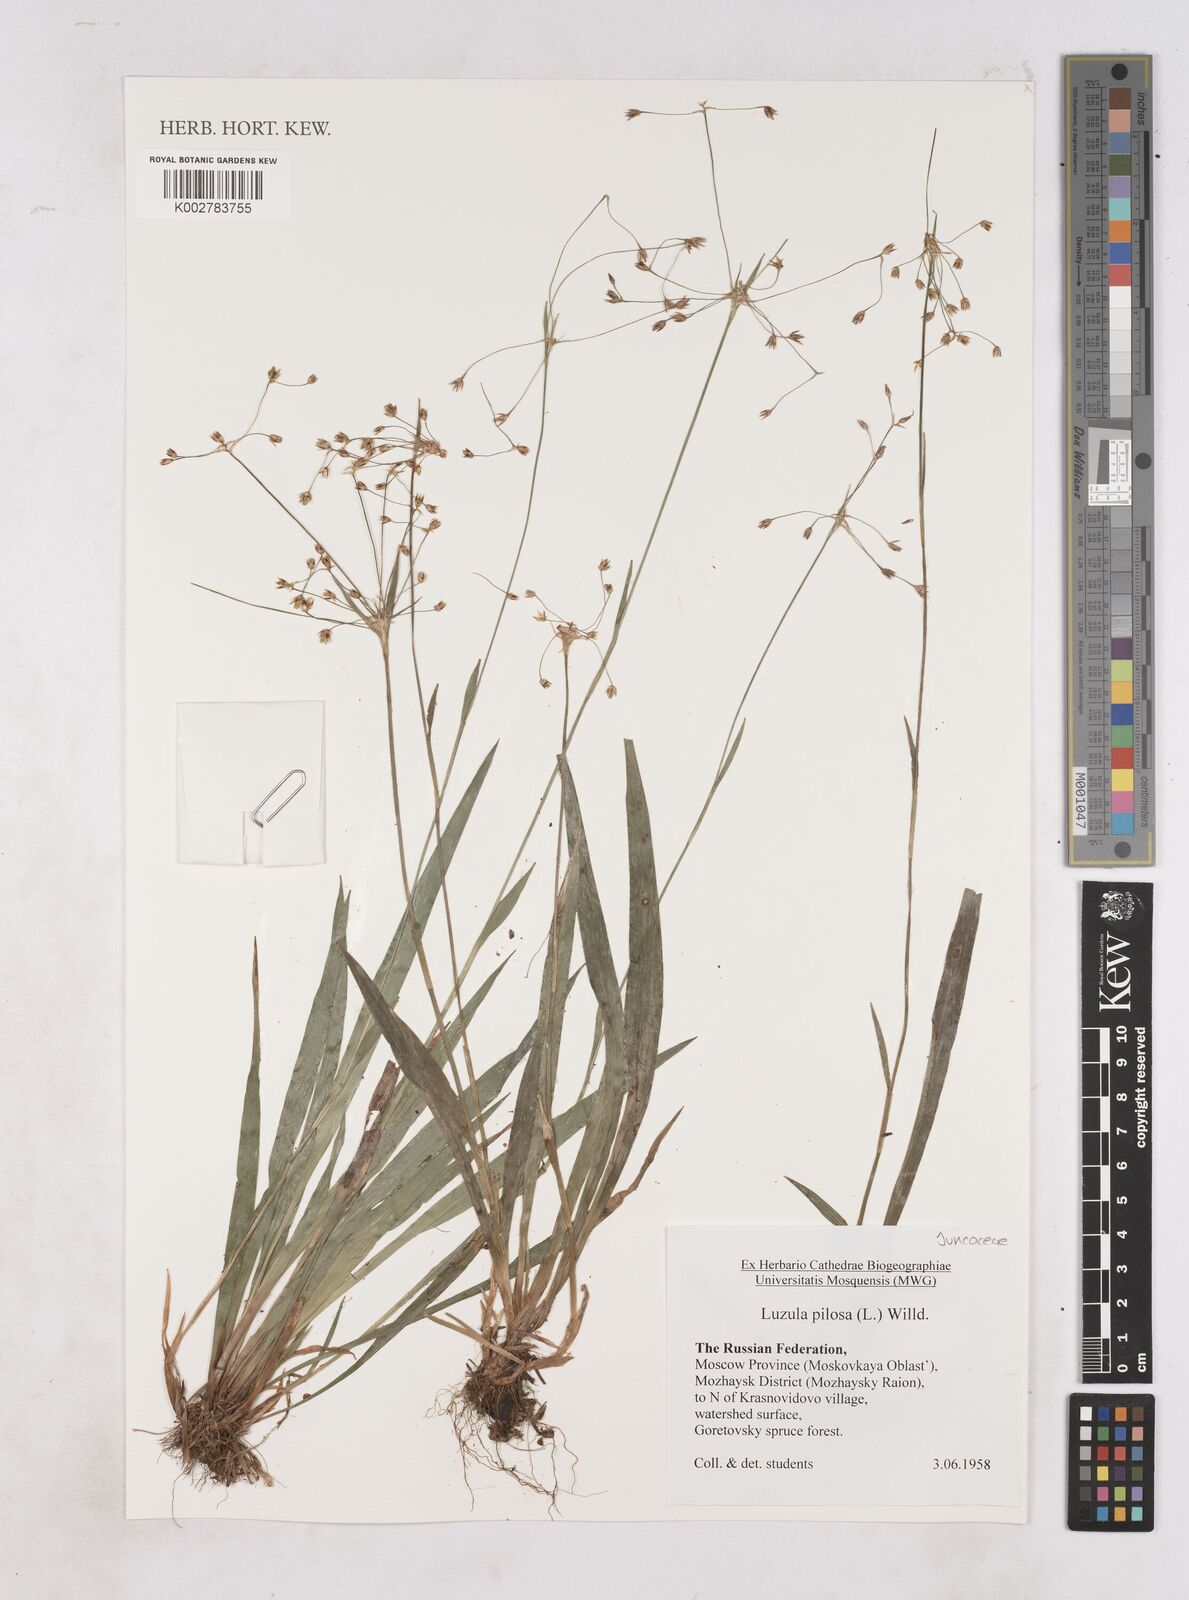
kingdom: Plantae
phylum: Tracheophyta
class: Liliopsida
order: Poales
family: Juncaceae
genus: Luzula
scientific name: Luzula pilosa
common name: Hairy wood-rush
